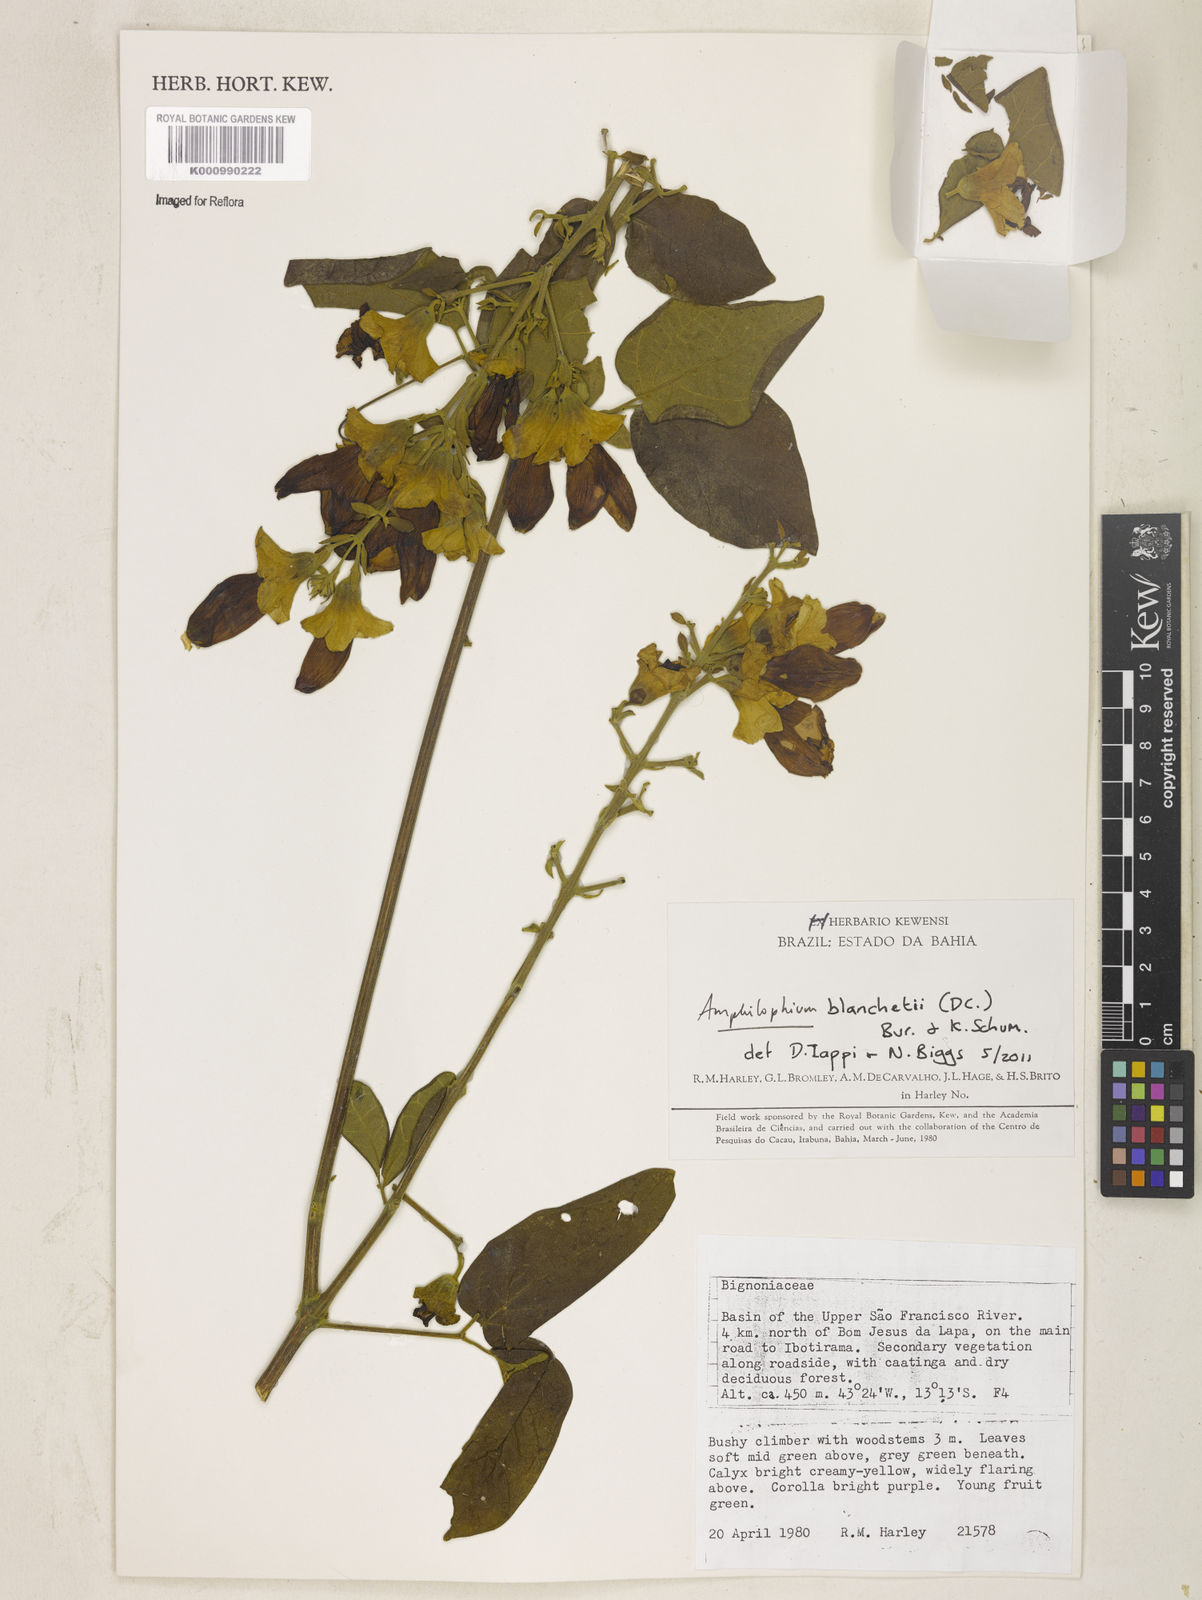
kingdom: Plantae
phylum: Tracheophyta
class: Magnoliopsida
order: Lamiales
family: Bignoniaceae
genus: Amphilophium
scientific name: Amphilophium paniculatum
